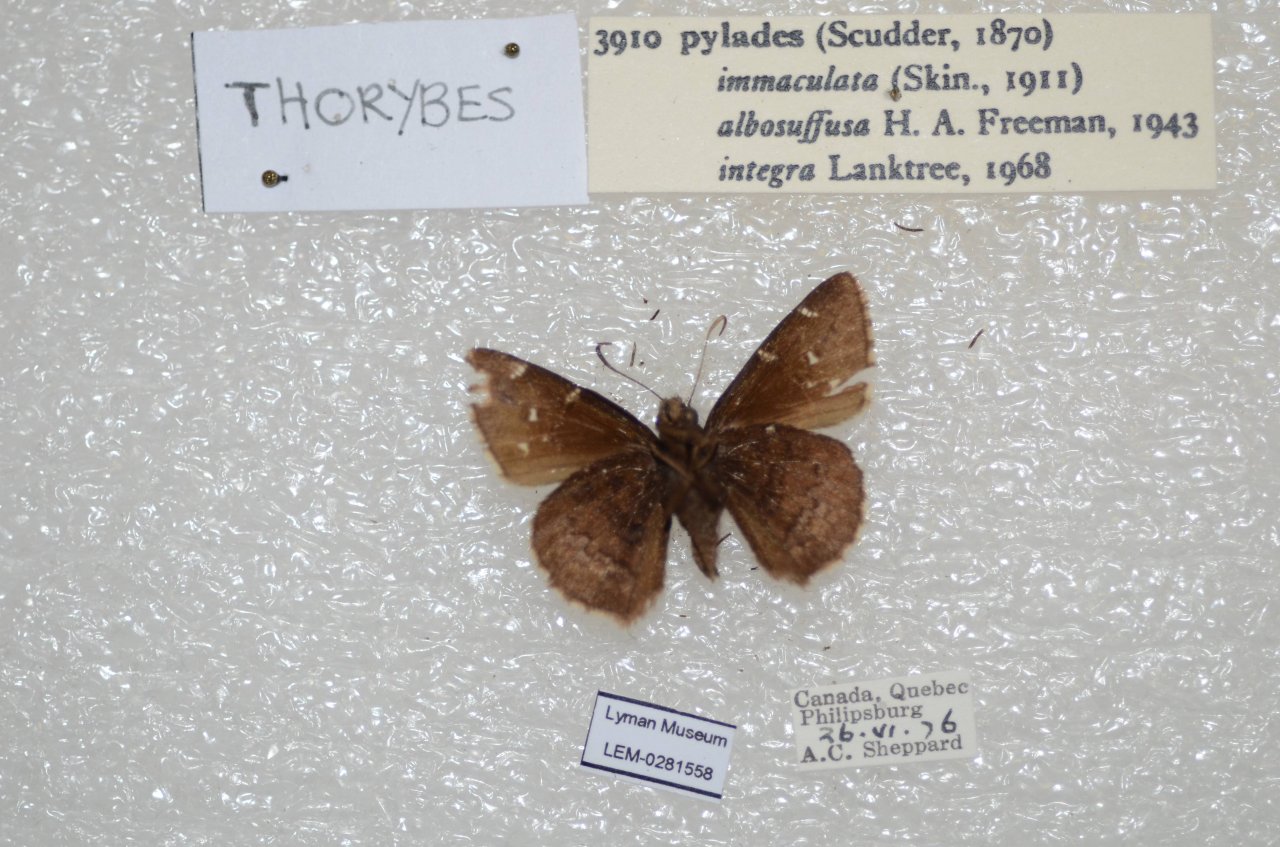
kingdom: Animalia
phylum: Arthropoda
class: Insecta
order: Lepidoptera
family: Hesperiidae
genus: Autochton
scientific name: Autochton
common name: Northern Cloudywing
